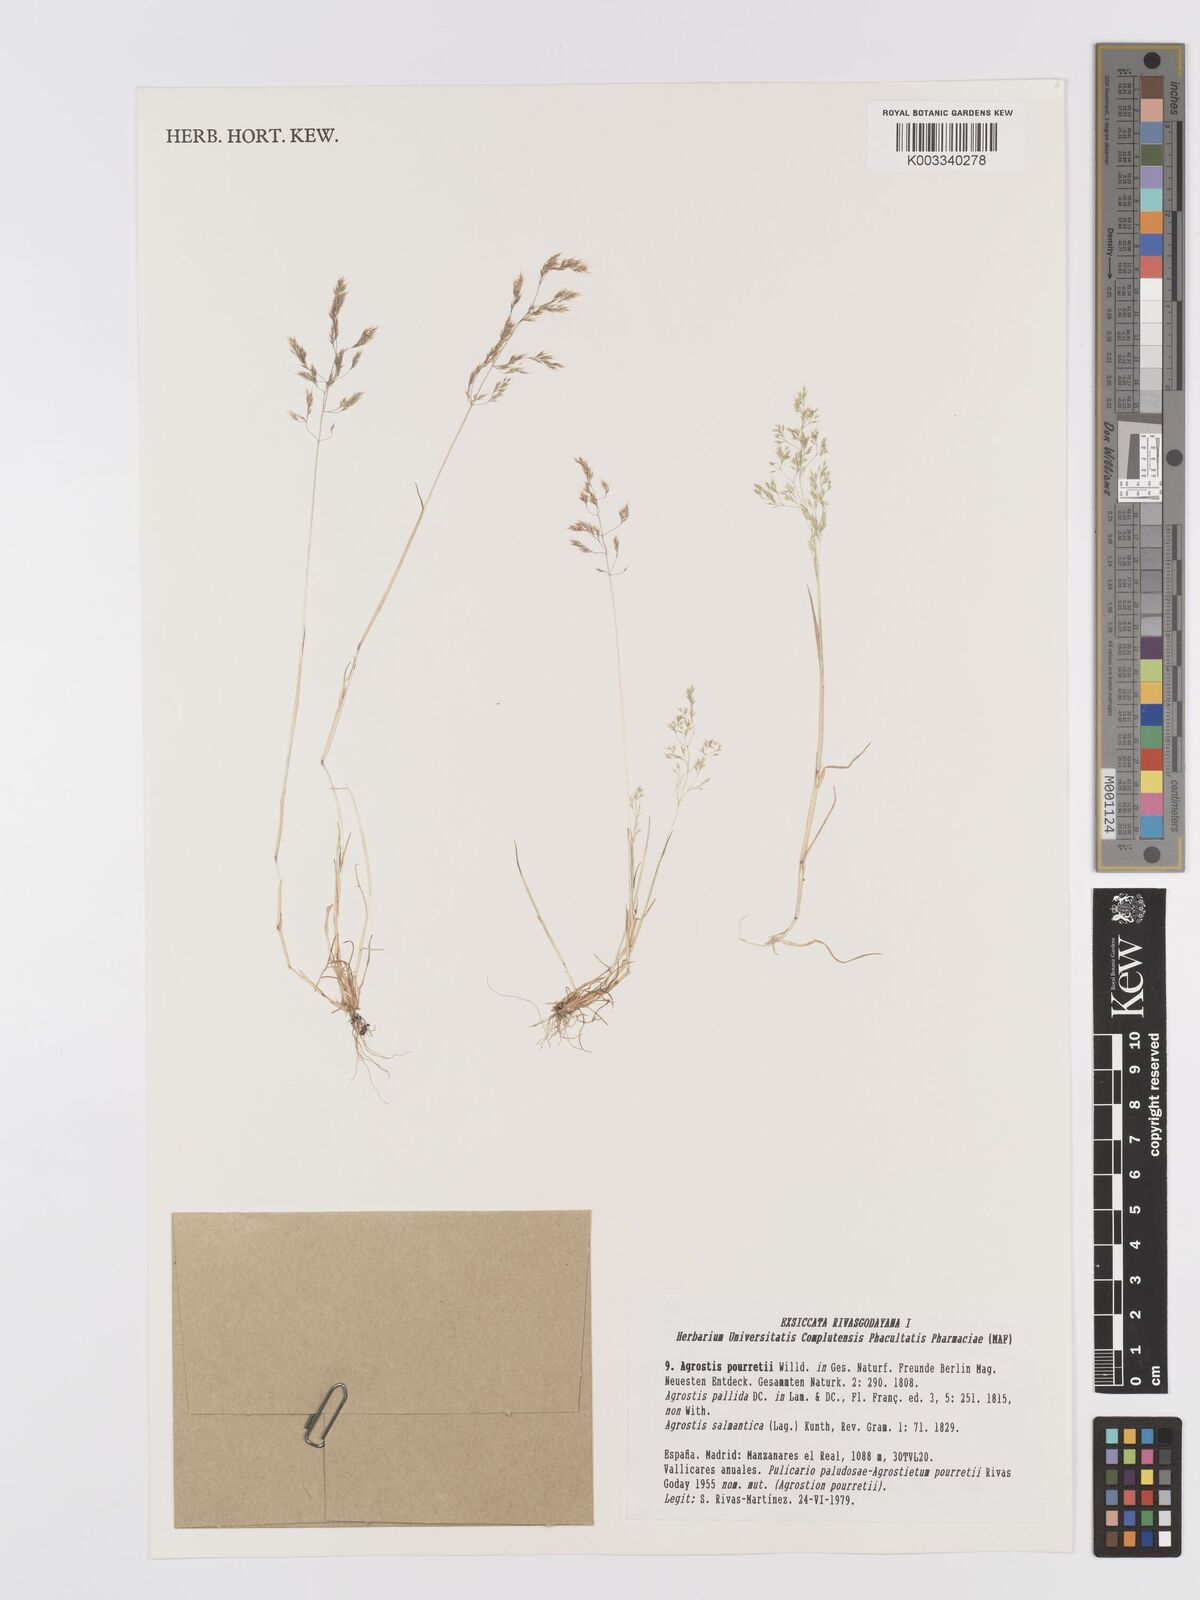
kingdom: Plantae
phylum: Tracheophyta
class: Liliopsida
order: Poales
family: Poaceae
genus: Agrostis
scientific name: Agrostis pourretii
